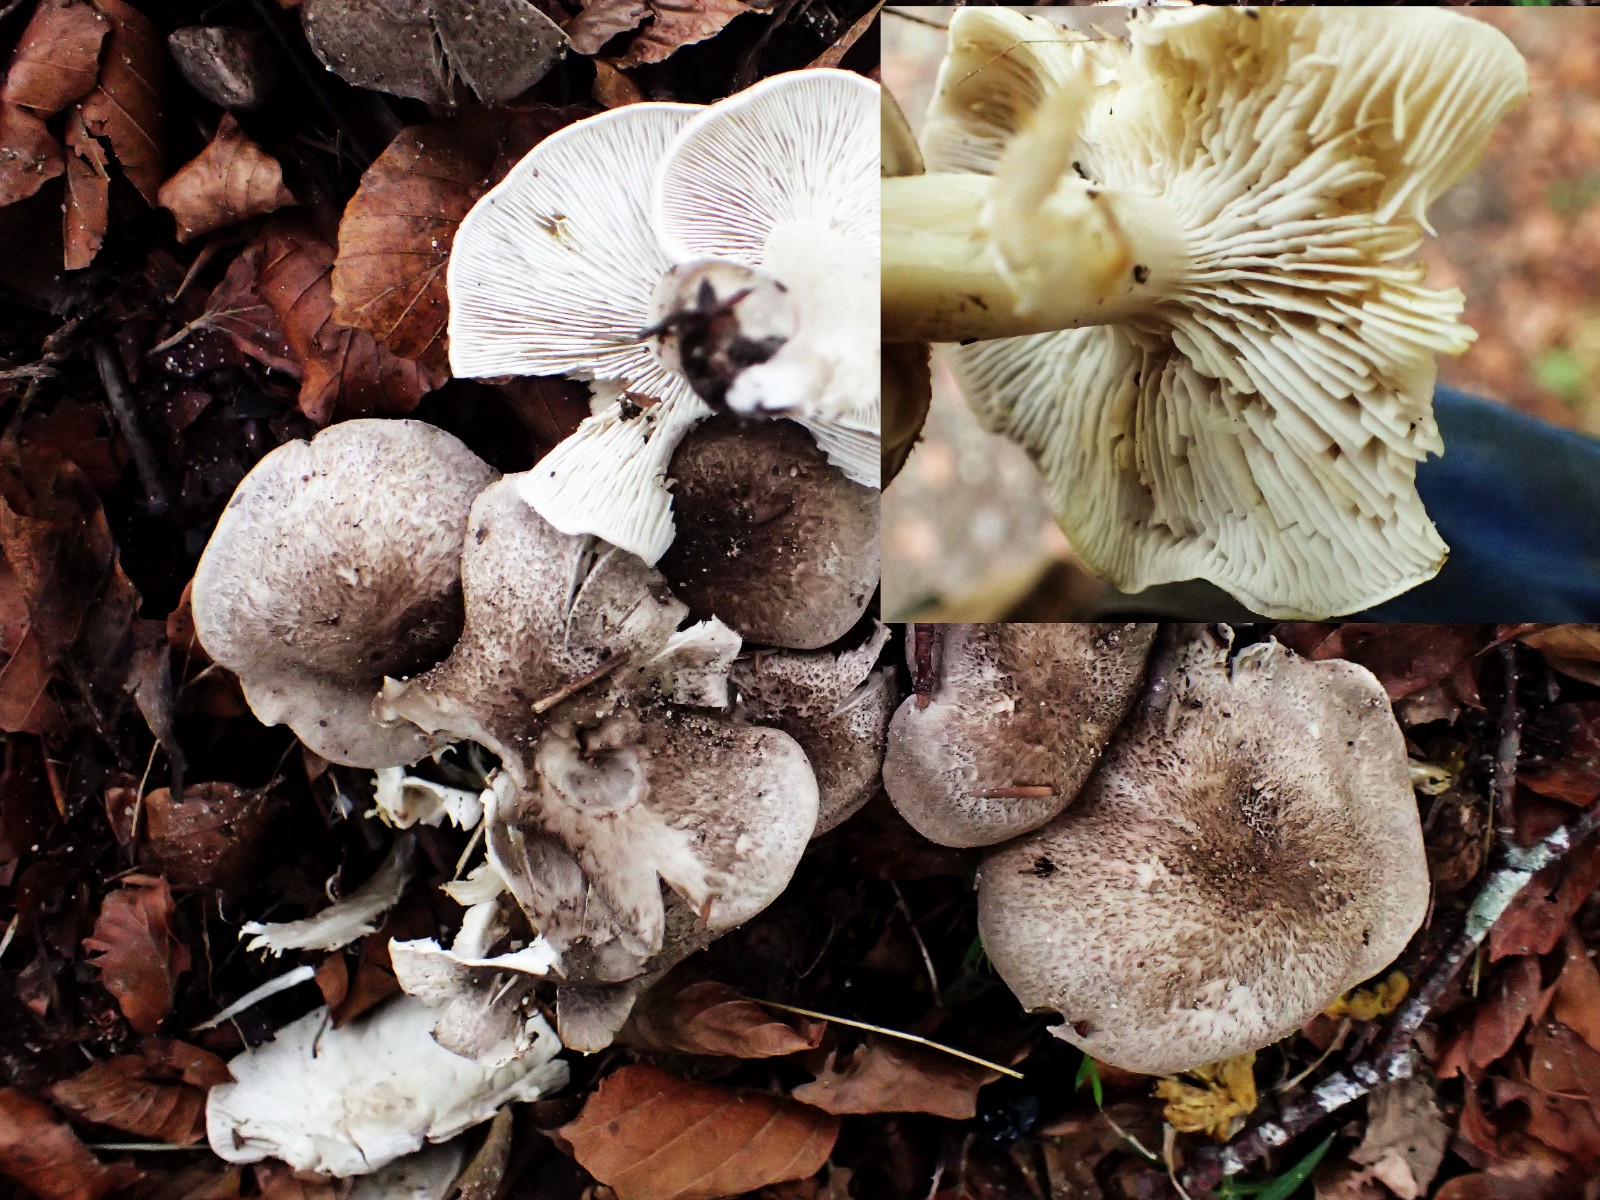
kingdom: Fungi
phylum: Basidiomycota
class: Agaricomycetes
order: Agaricales
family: Tricholomataceae
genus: Tricholoma
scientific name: Tricholoma scalpturatum
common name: gulplettet ridderhat
